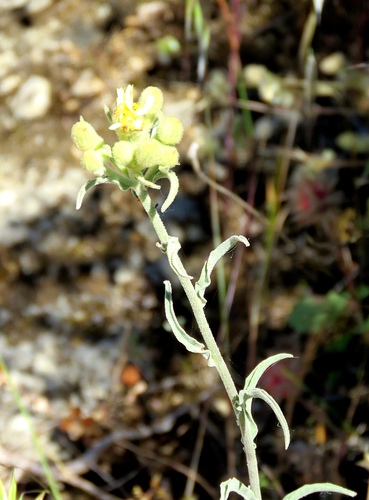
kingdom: Plantae
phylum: Tracheophyta
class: Magnoliopsida
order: Asterales
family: Asteraceae
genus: Andryala
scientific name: Andryala integrifolia
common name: Common andryala
